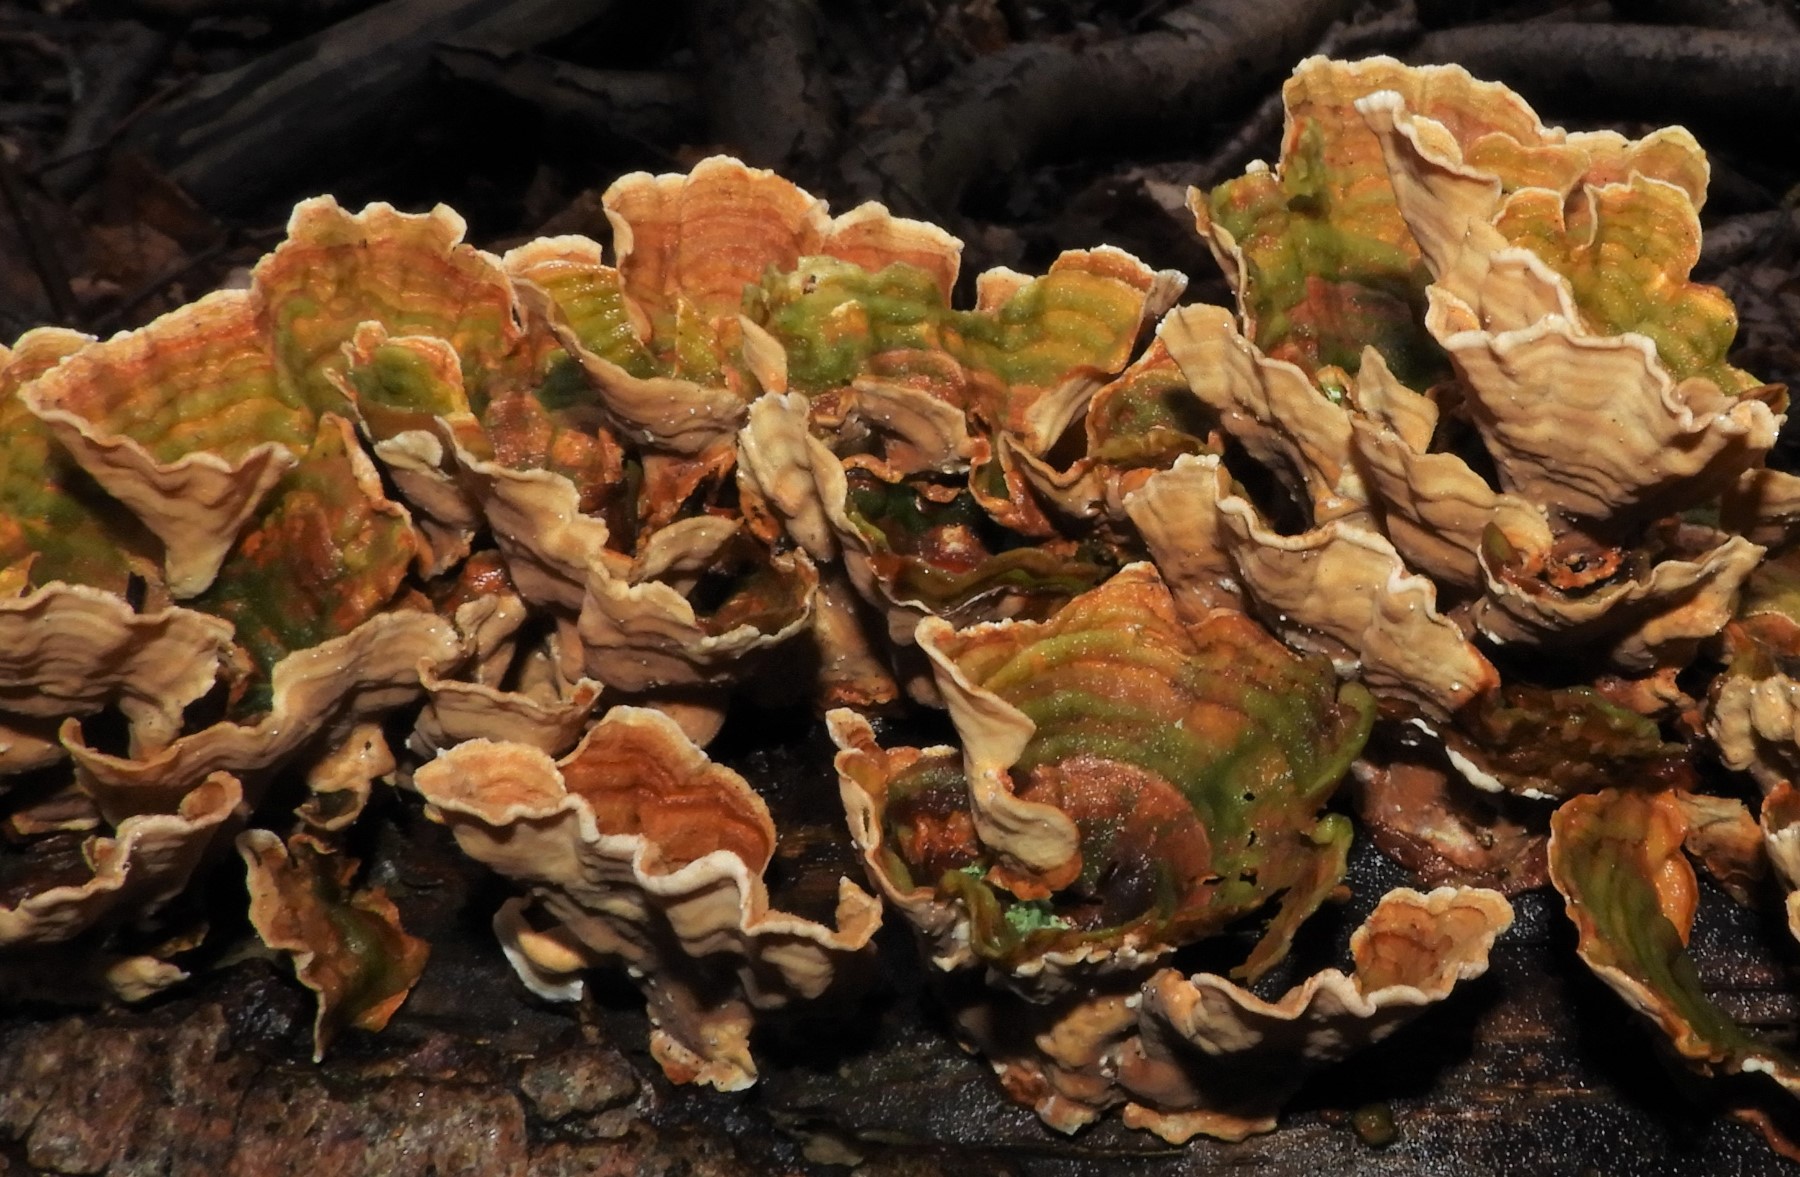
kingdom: Fungi
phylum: Basidiomycota
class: Agaricomycetes
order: Russulales
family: Stereaceae
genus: Stereum
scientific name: Stereum subtomentosum
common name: smuk lædersvamp
